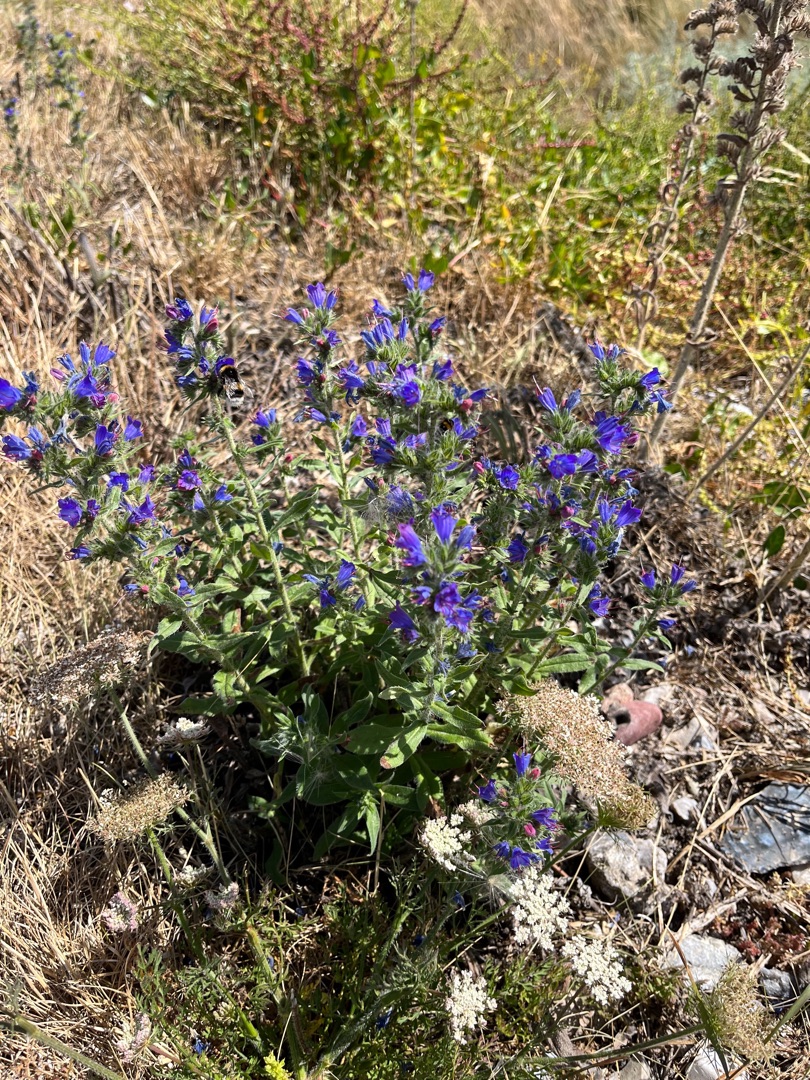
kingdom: Plantae
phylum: Tracheophyta
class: Magnoliopsida
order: Boraginales
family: Boraginaceae
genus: Echium
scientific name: Echium vulgare
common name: Slangehoved
